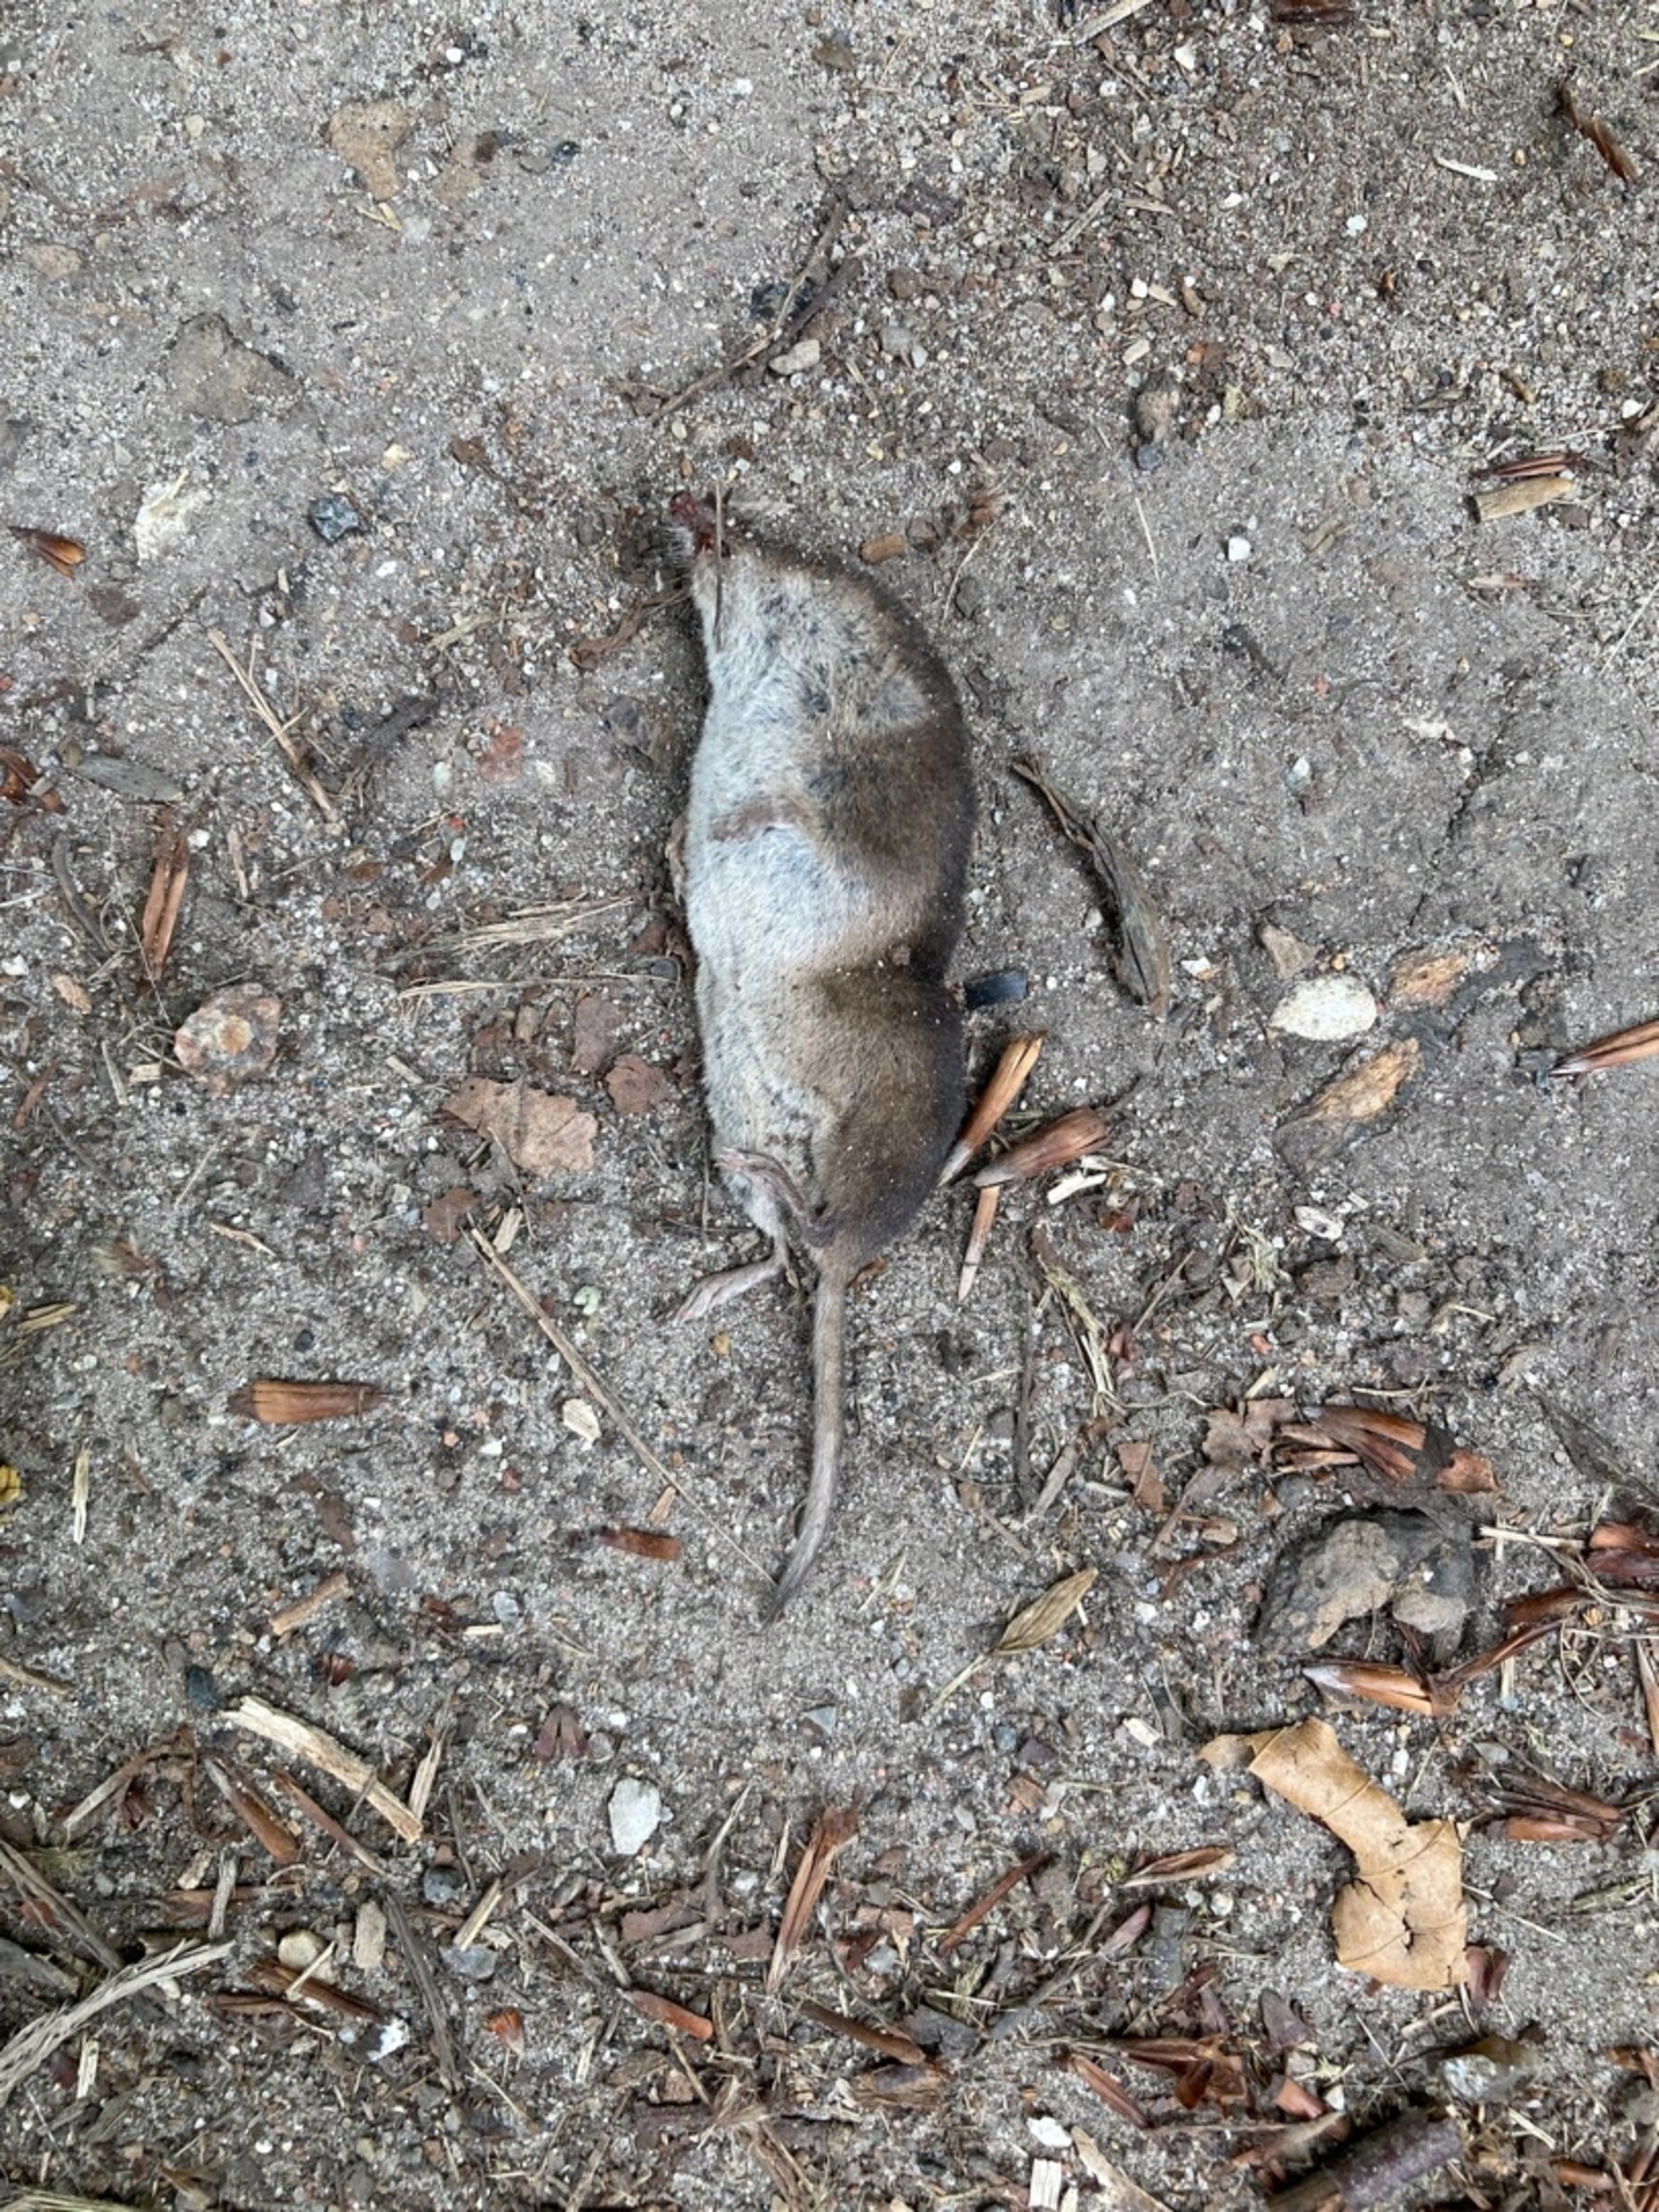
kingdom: Animalia
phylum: Chordata
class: Mammalia
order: Soricomorpha
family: Soricidae
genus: Sorex
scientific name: Sorex araneus
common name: Almindelig spidsmus
